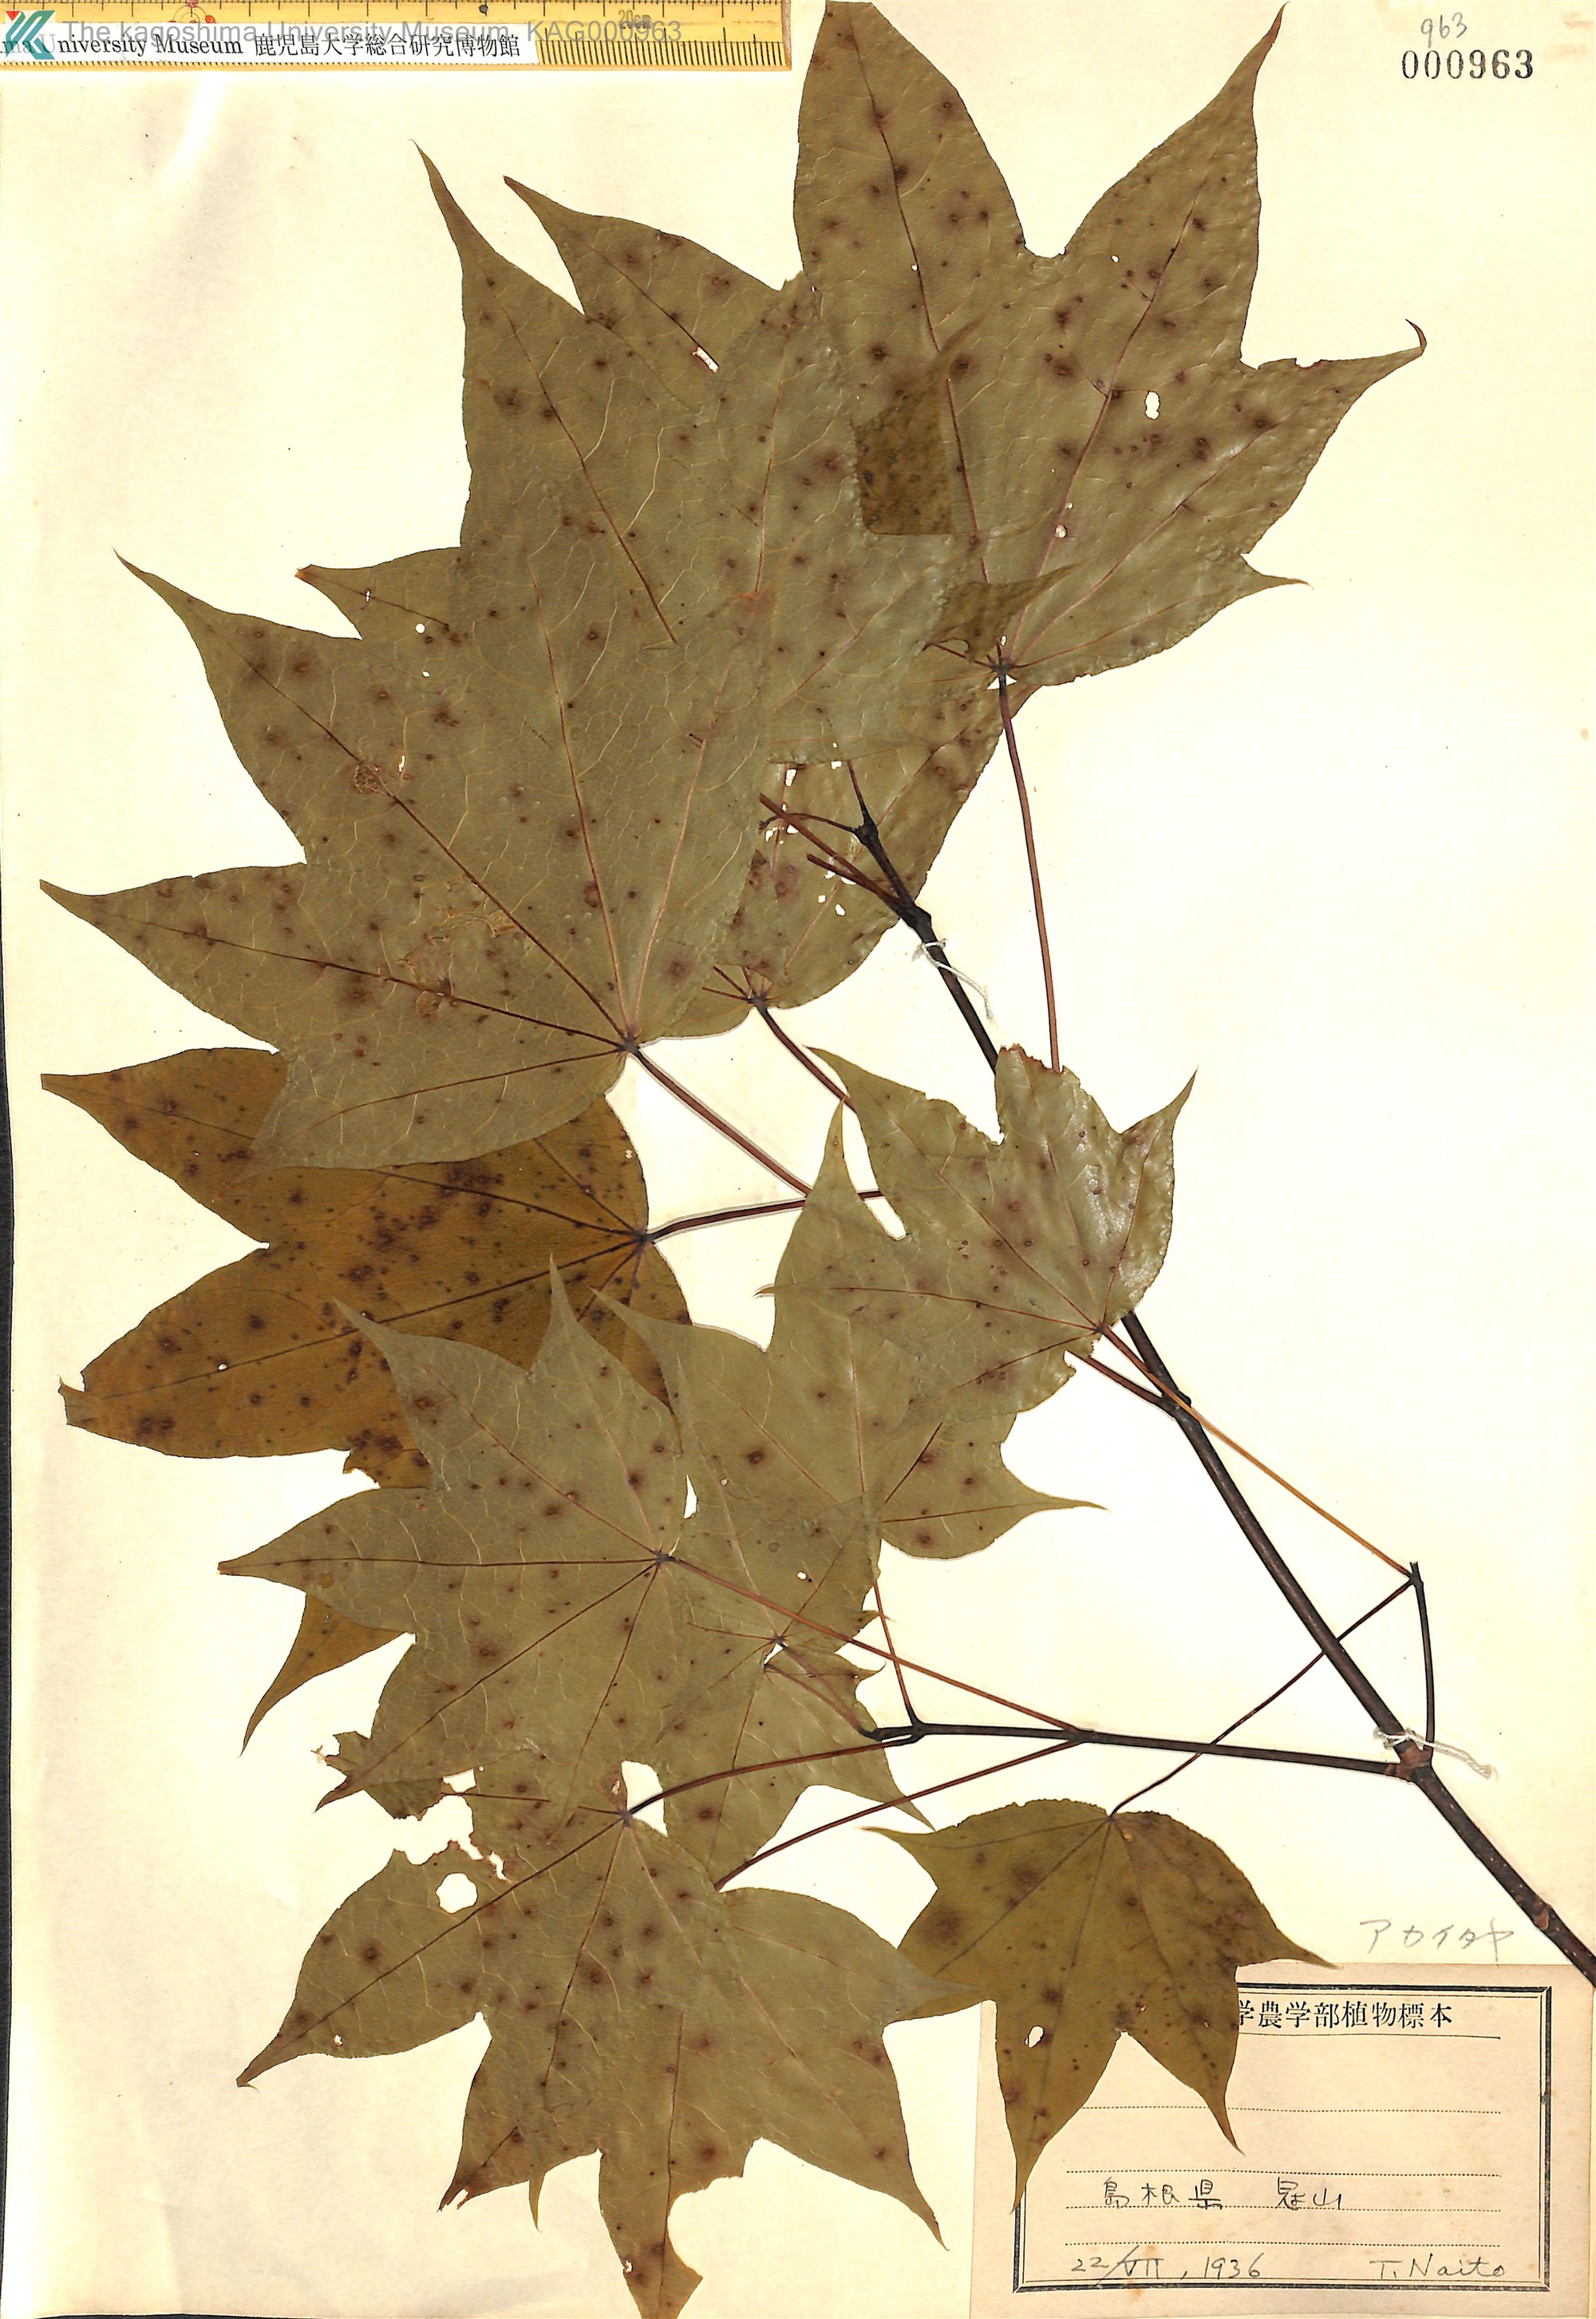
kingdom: Plantae
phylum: Tracheophyta
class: Magnoliopsida
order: Sapindales
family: Sapindaceae
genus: Acer
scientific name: Acer pictum
